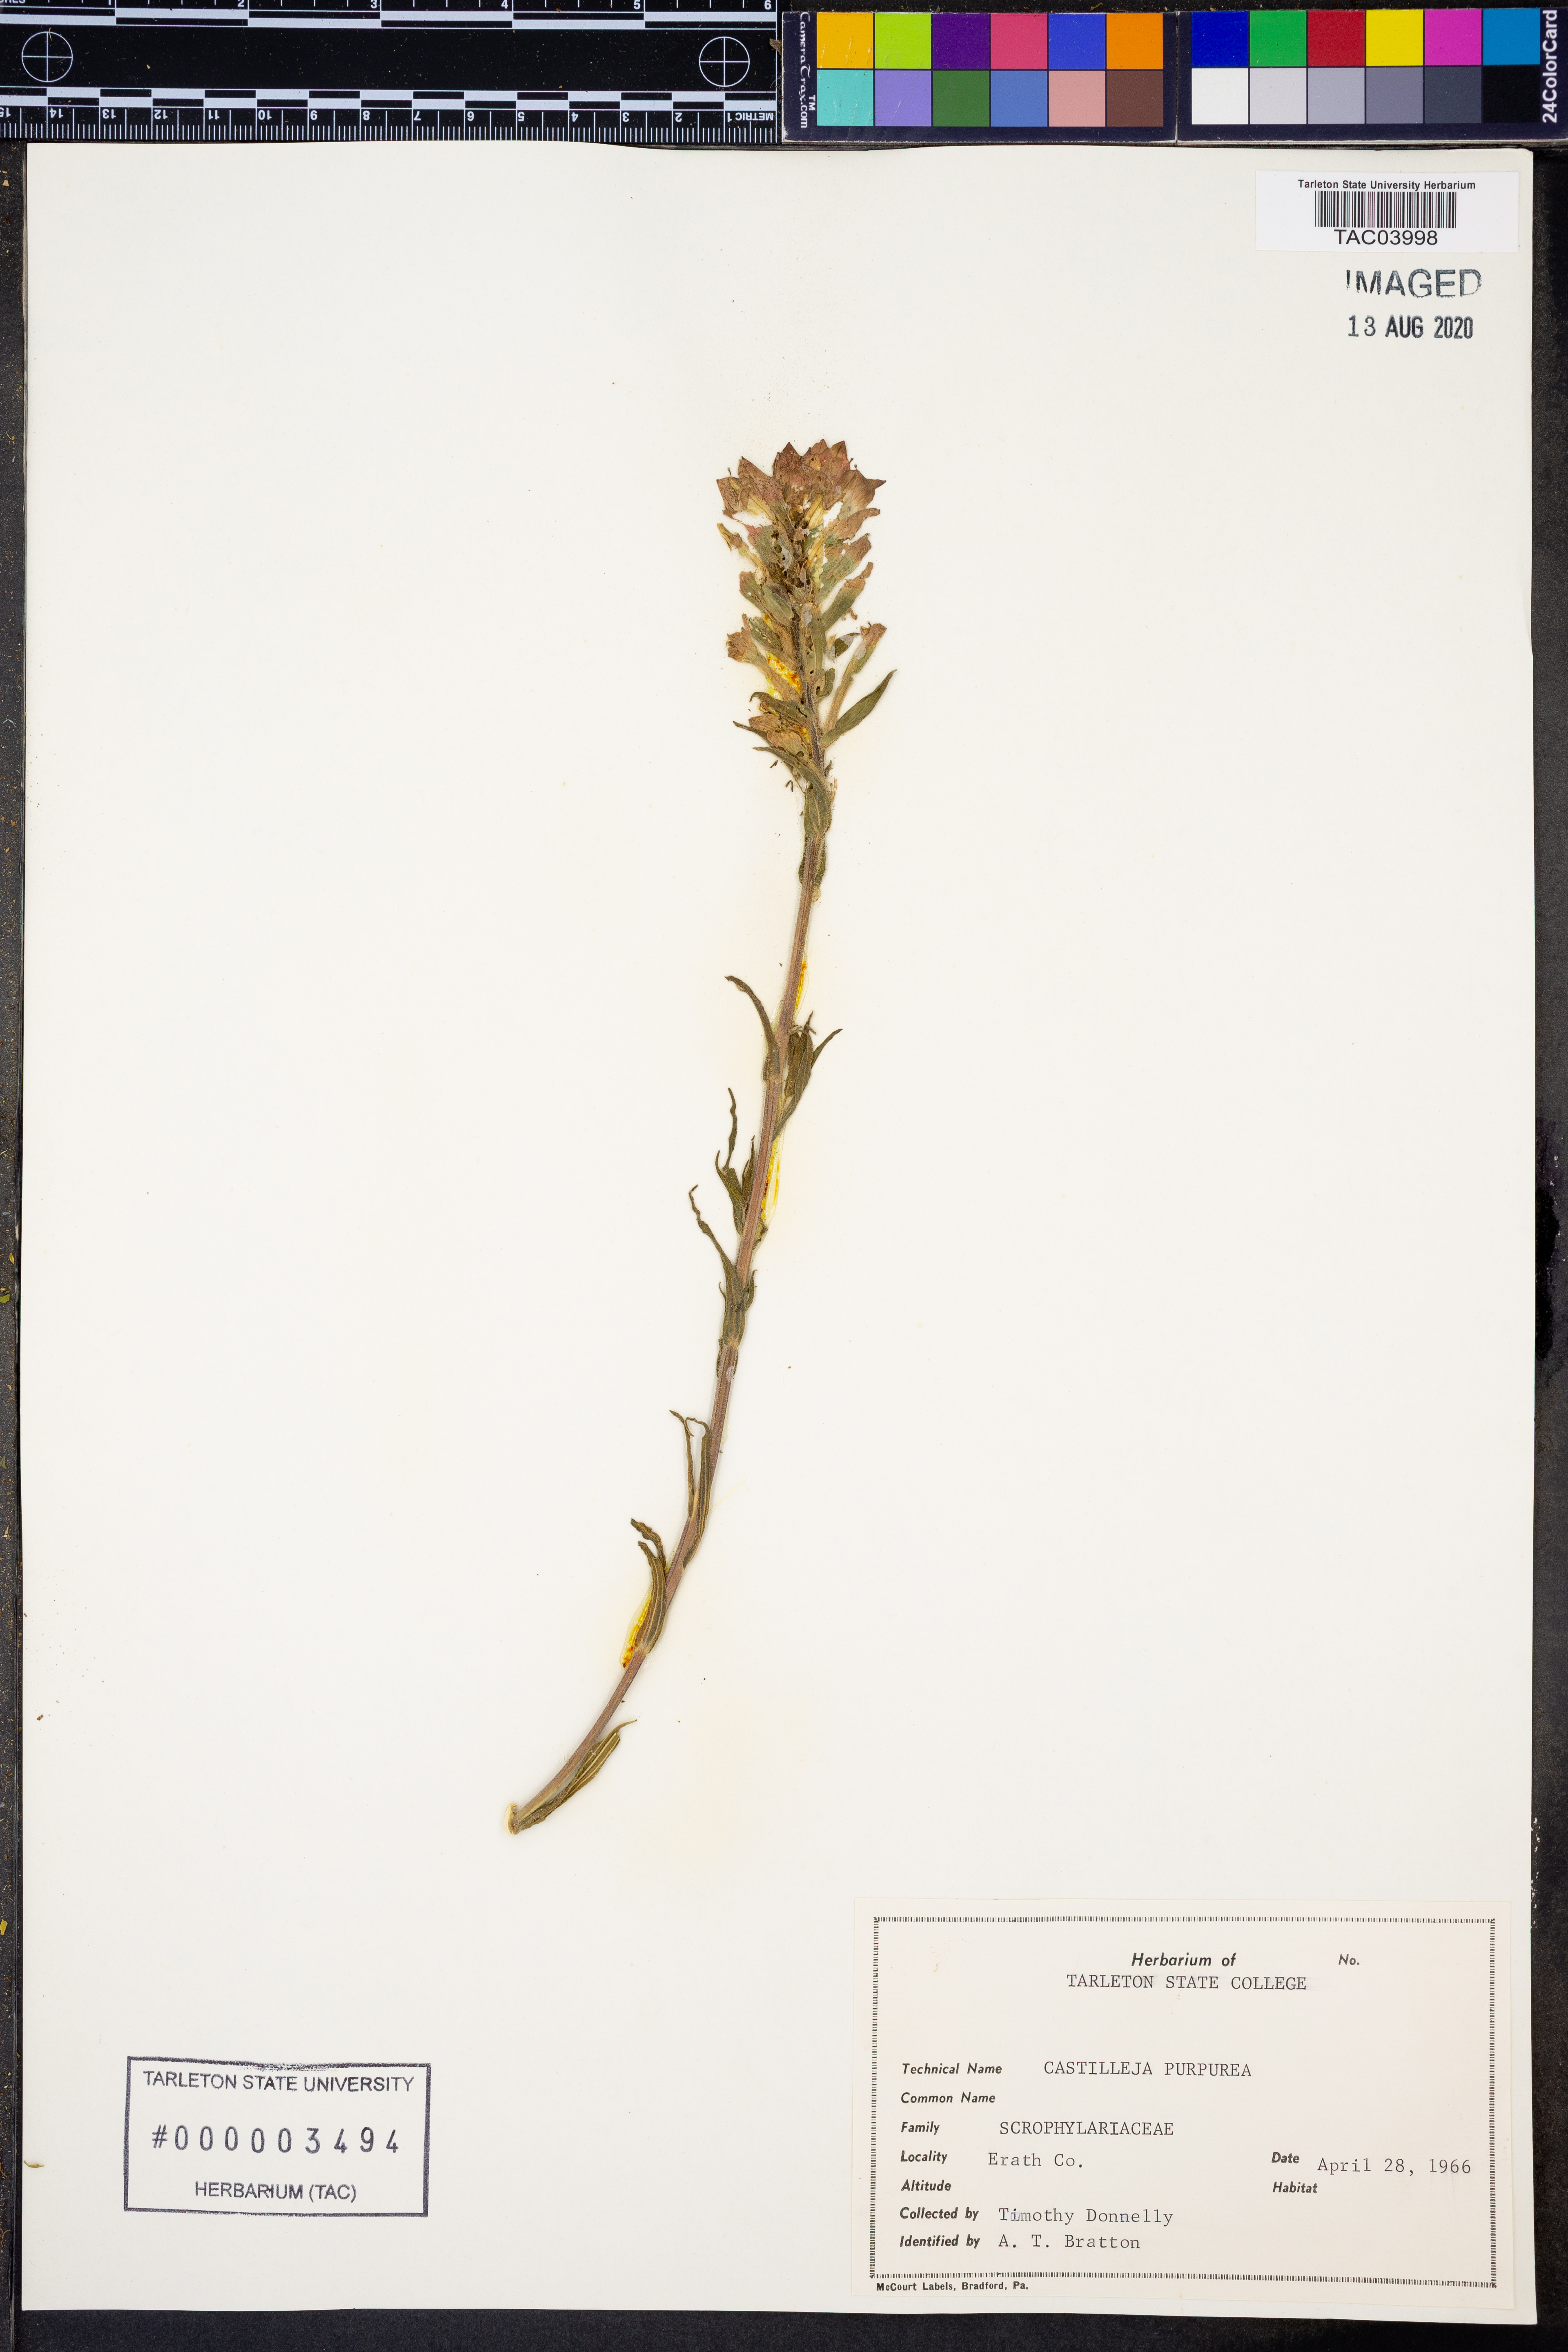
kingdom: Plantae
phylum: Tracheophyta
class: Magnoliopsida
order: Lamiales
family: Orobanchaceae
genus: Castilleja
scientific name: Castilleja purpurea
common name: Plains paintbrush
